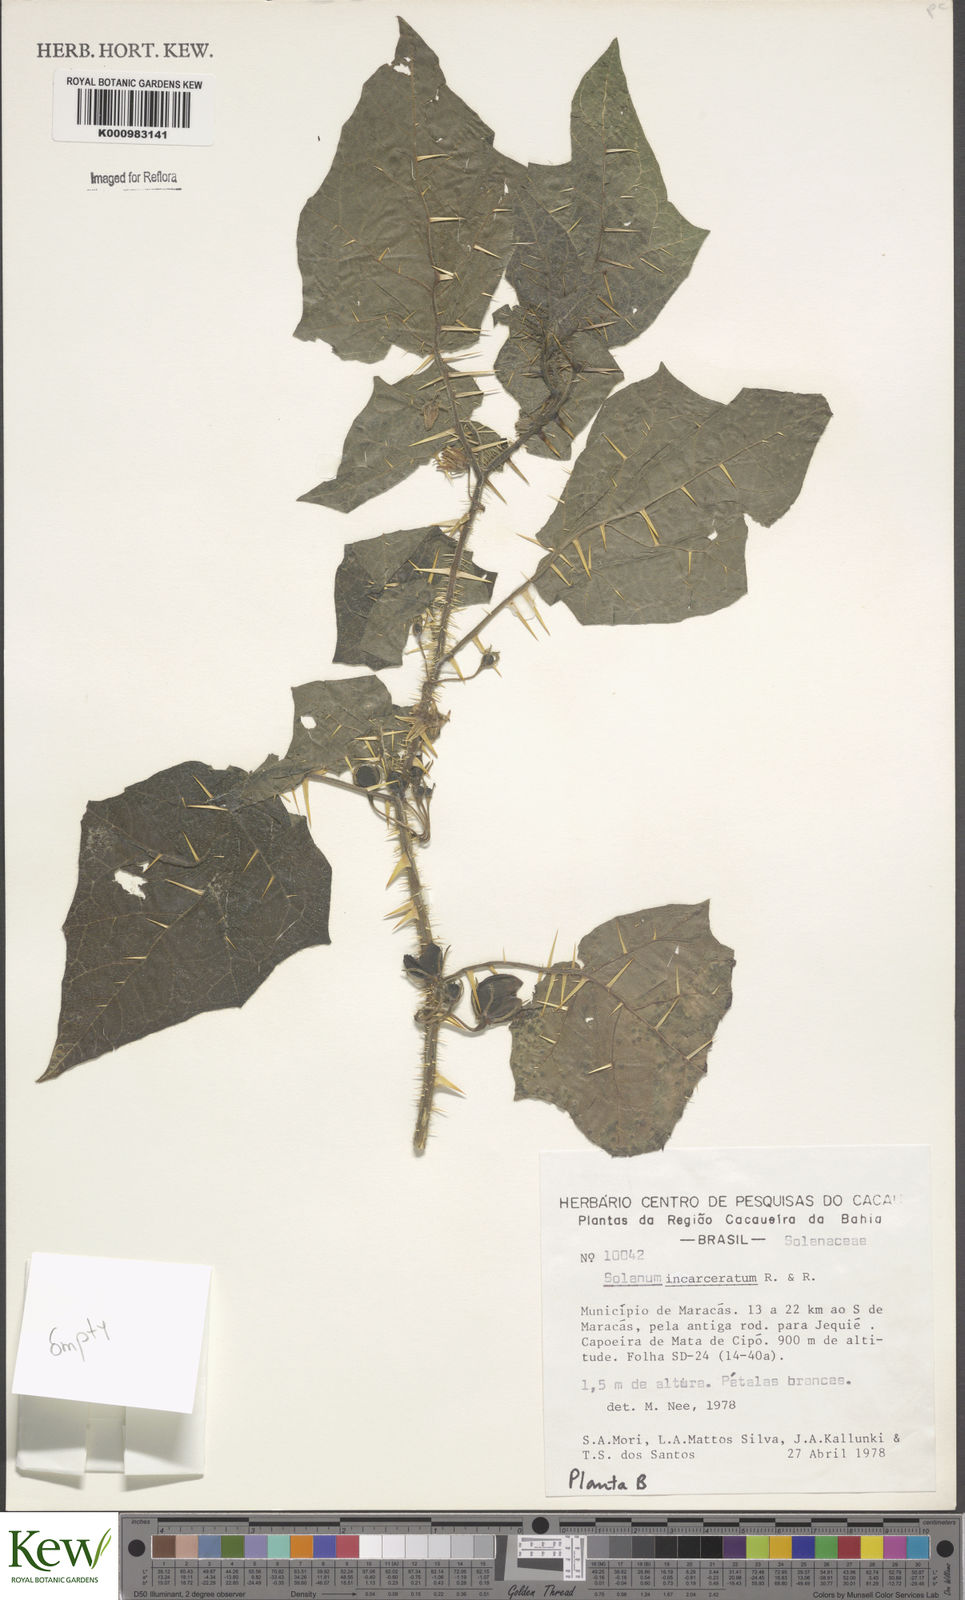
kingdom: Plantae
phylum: Tracheophyta
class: Magnoliopsida
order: Solanales
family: Solanaceae
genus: Solanum
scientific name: Solanum incarceratum
